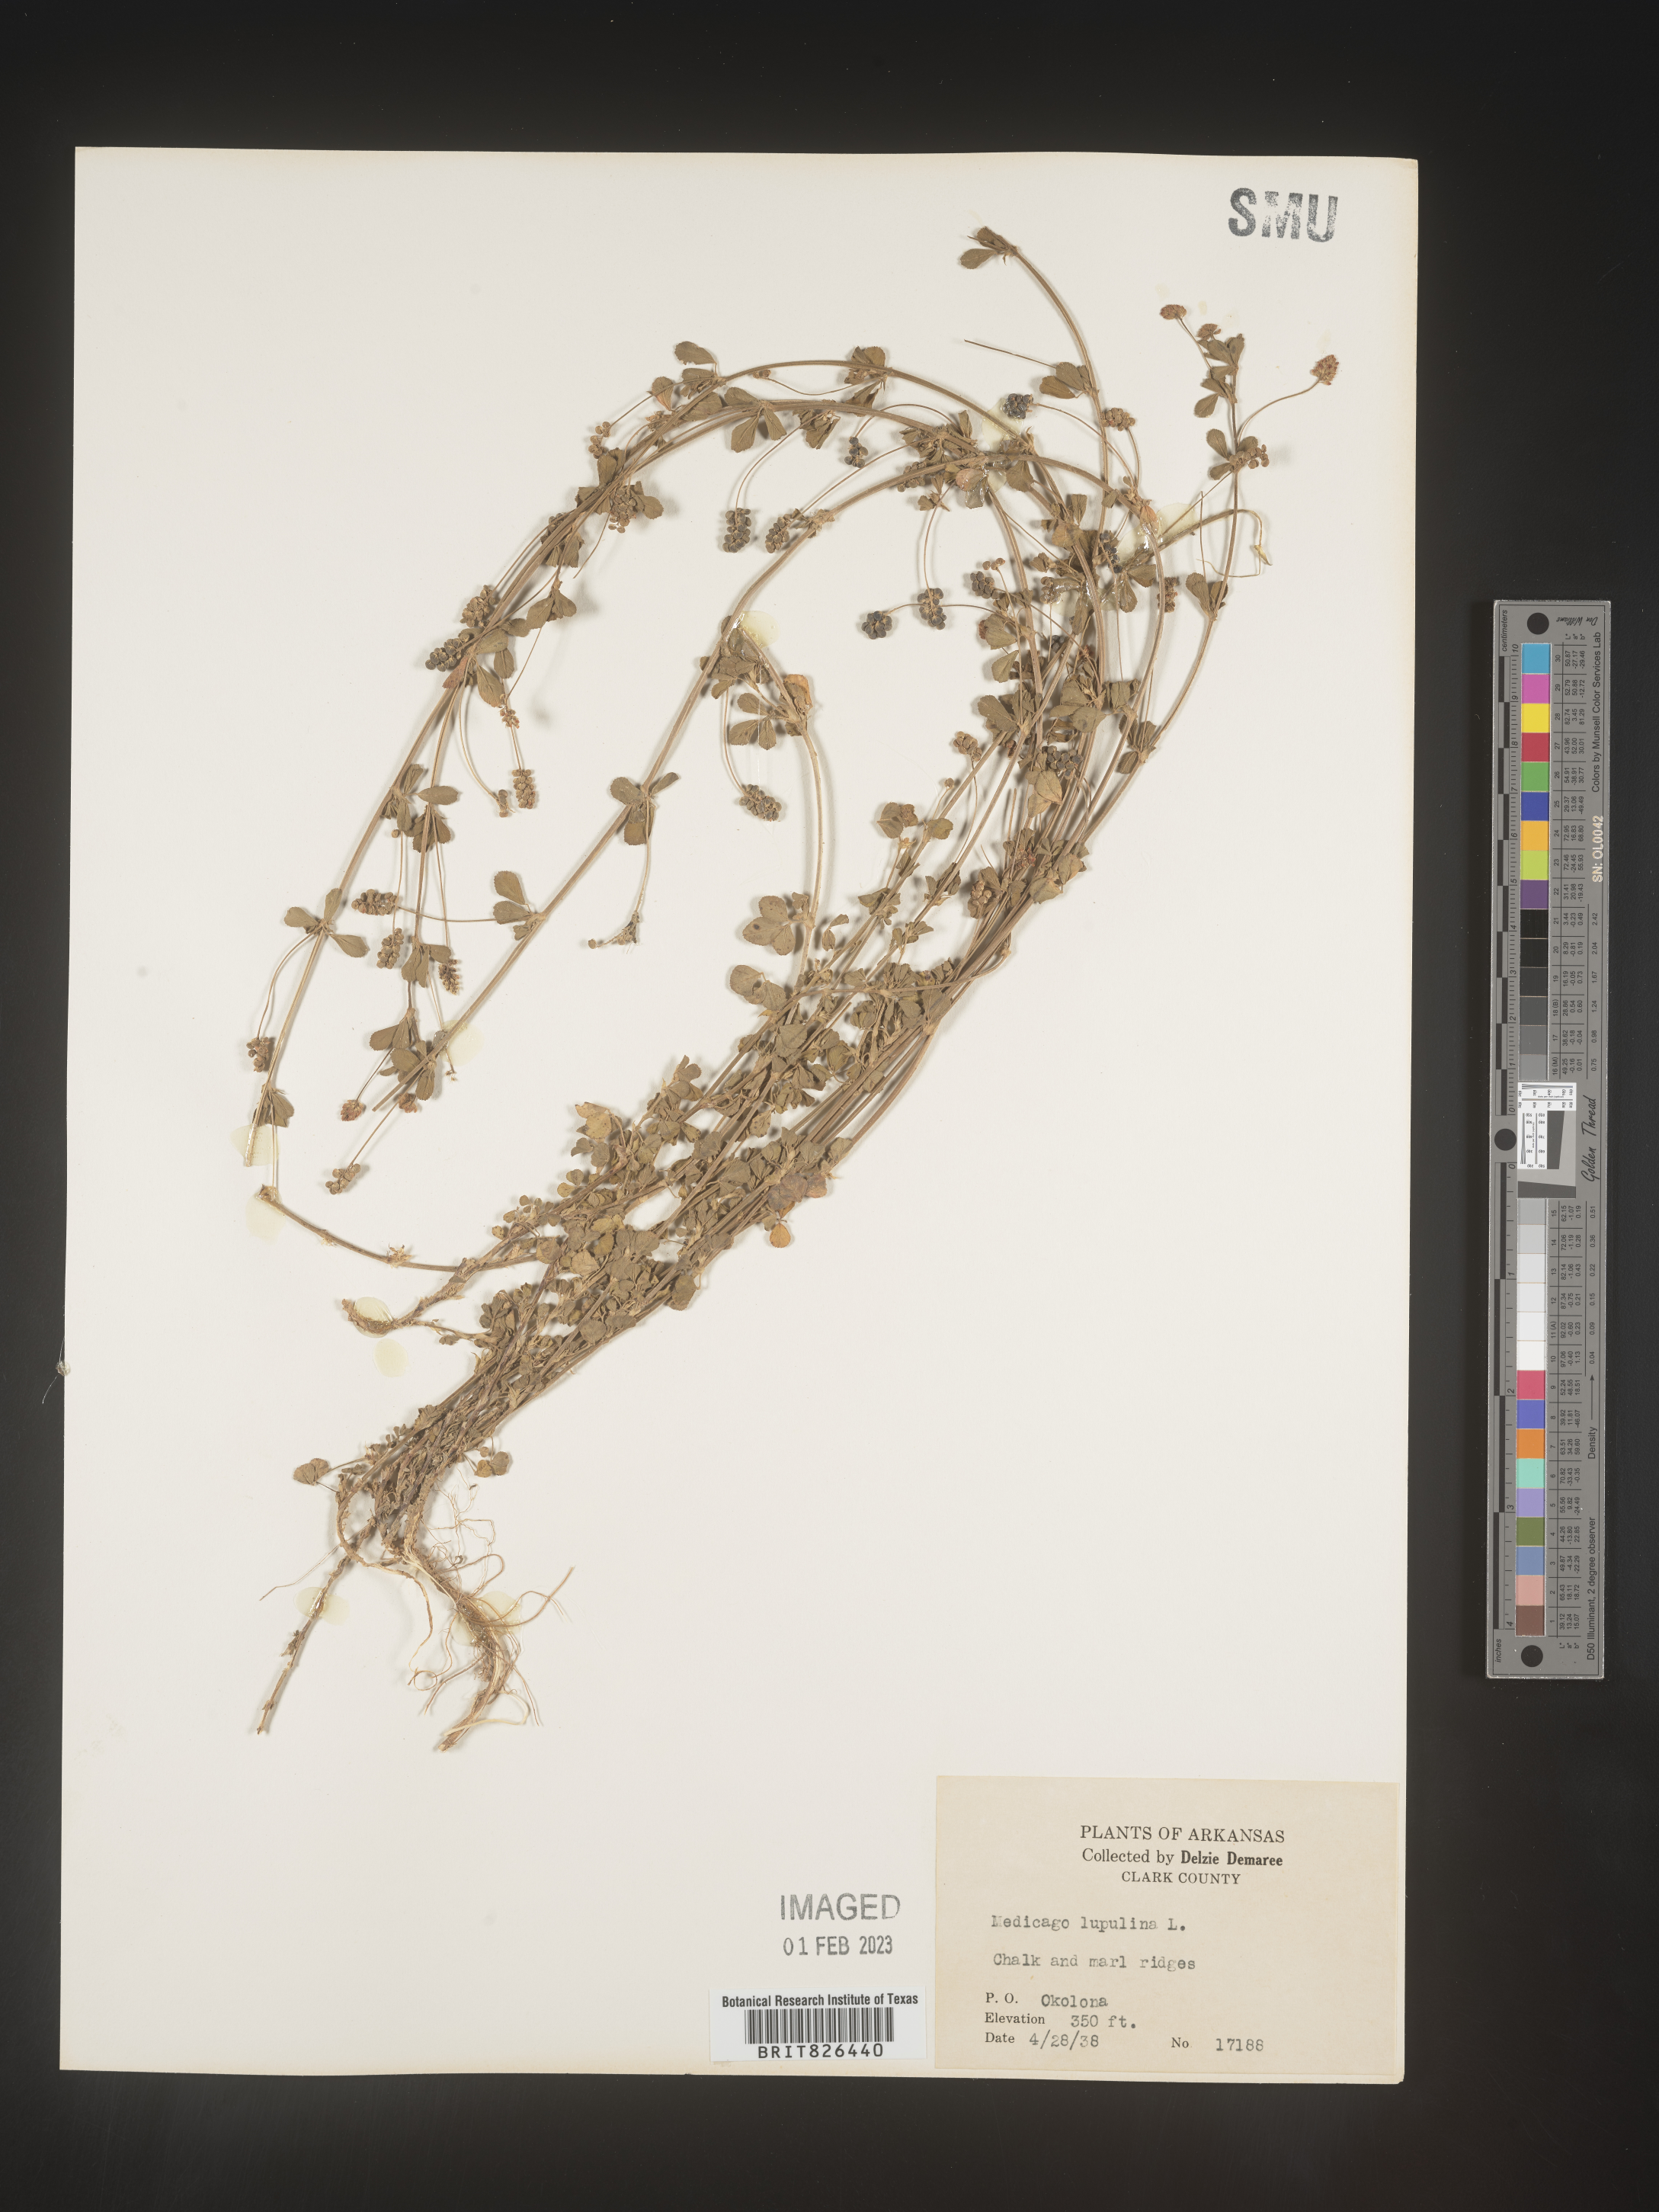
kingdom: Plantae
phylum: Tracheophyta
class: Magnoliopsida
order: Fabales
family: Fabaceae
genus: Medicago
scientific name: Medicago lupulina
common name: Black medick
